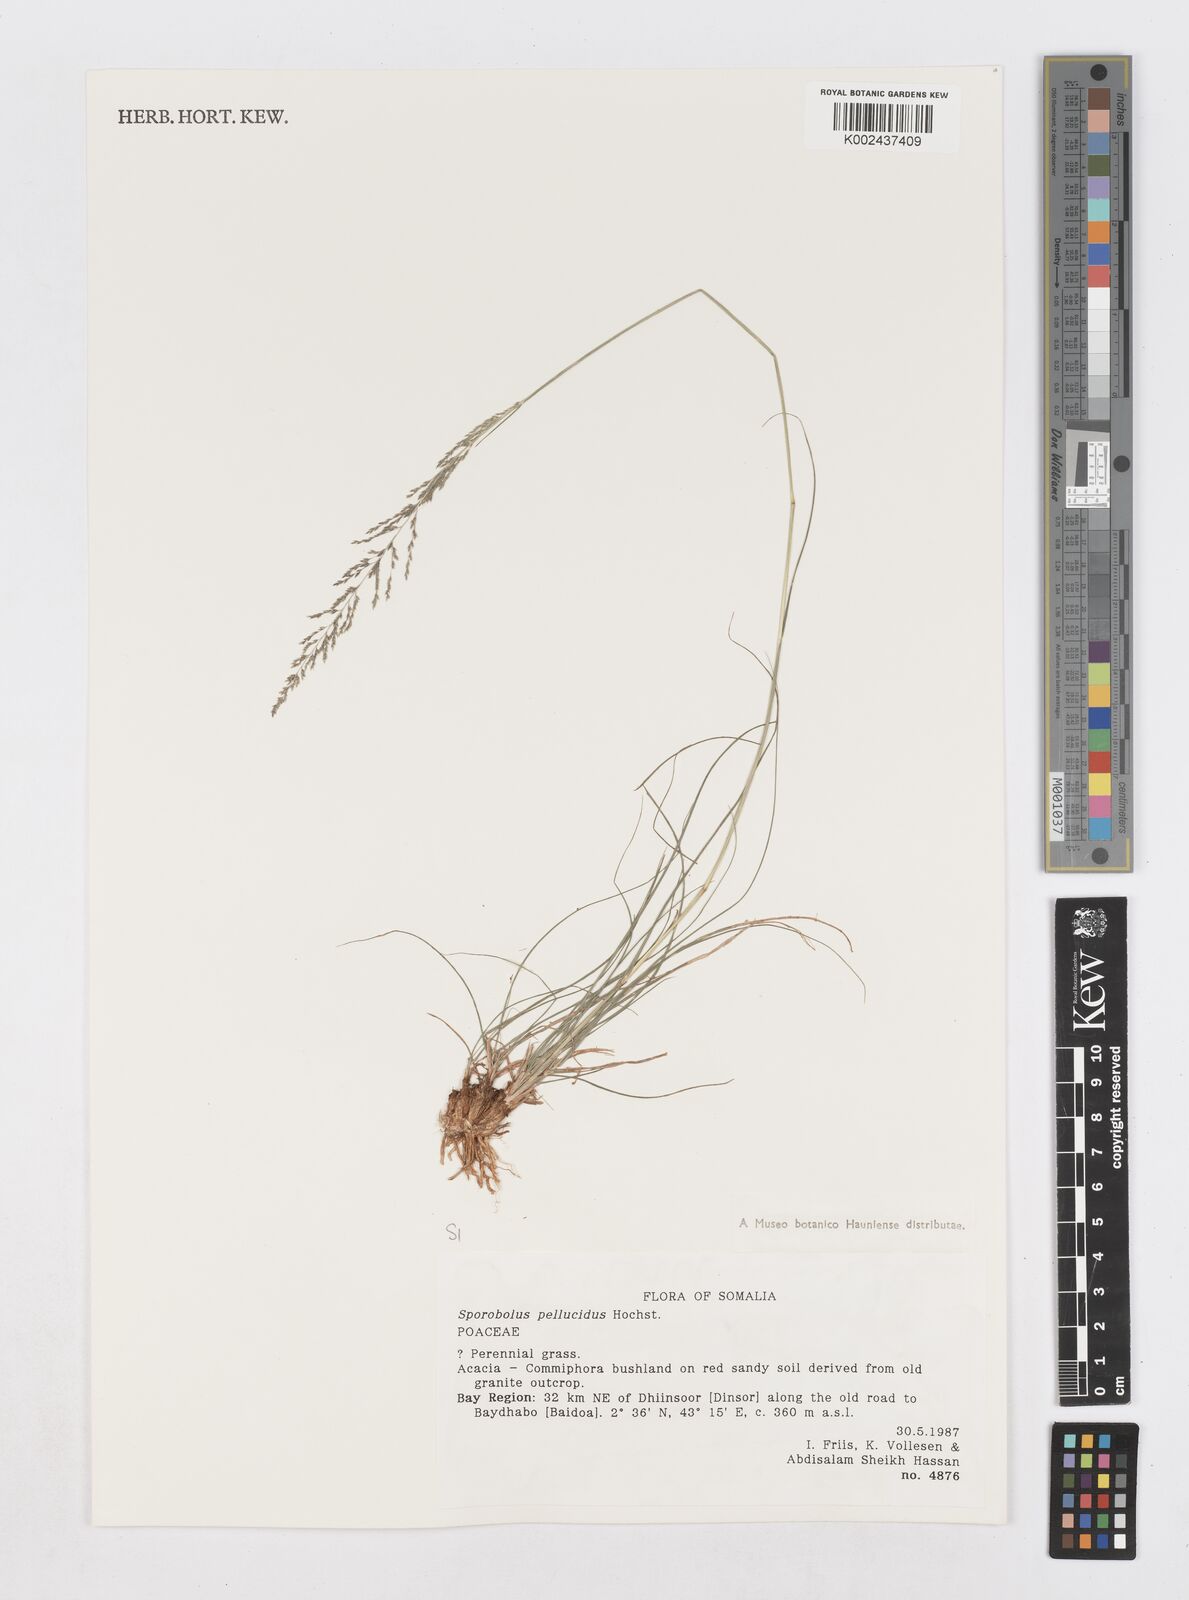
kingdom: Plantae
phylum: Tracheophyta
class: Liliopsida
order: Poales
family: Poaceae
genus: Sporobolus
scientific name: Sporobolus pellucidus
